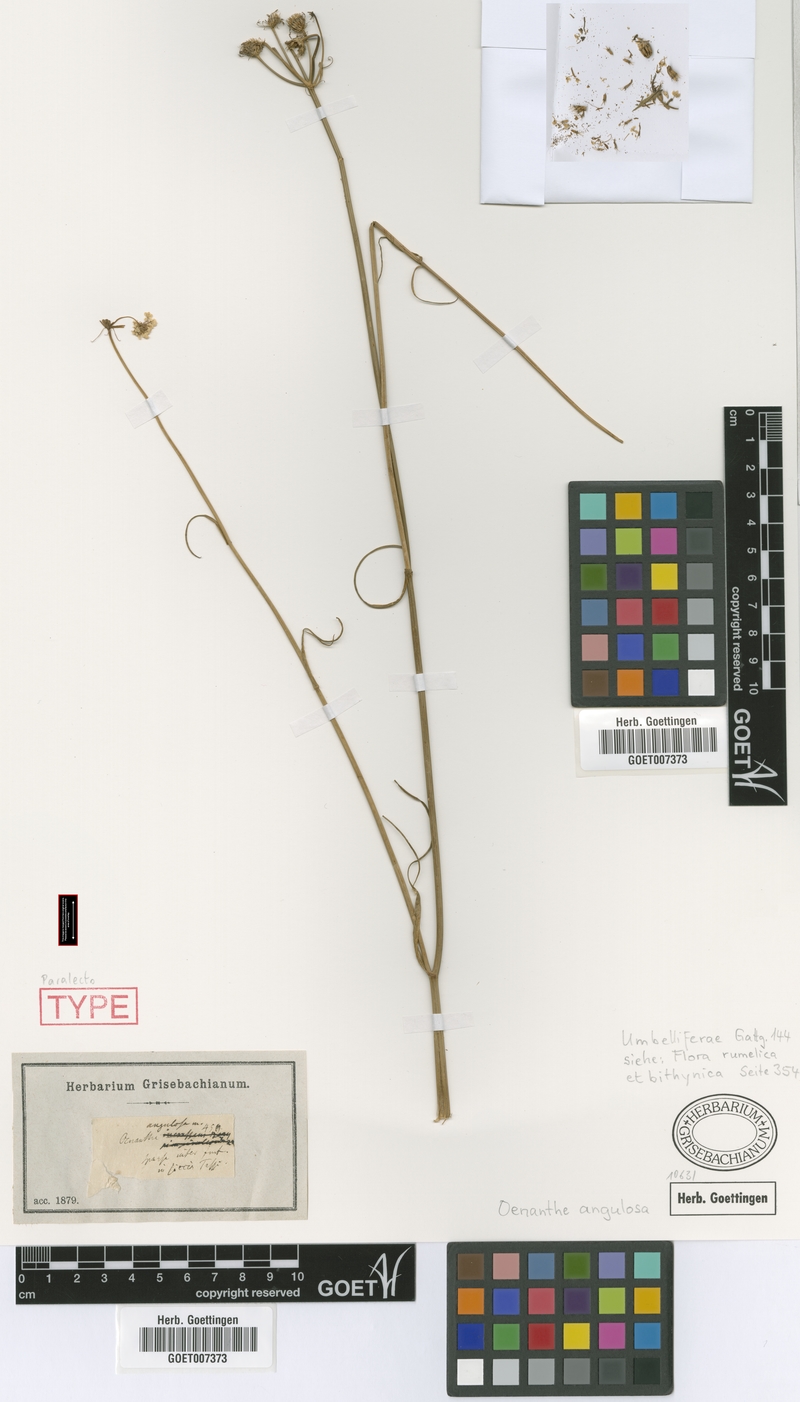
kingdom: Plantae
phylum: Tracheophyta
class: Magnoliopsida
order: Apiales
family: Apiaceae
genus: Oenanthe
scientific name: Oenanthe silaifolia
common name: Narrow-leaved water-dropwort
